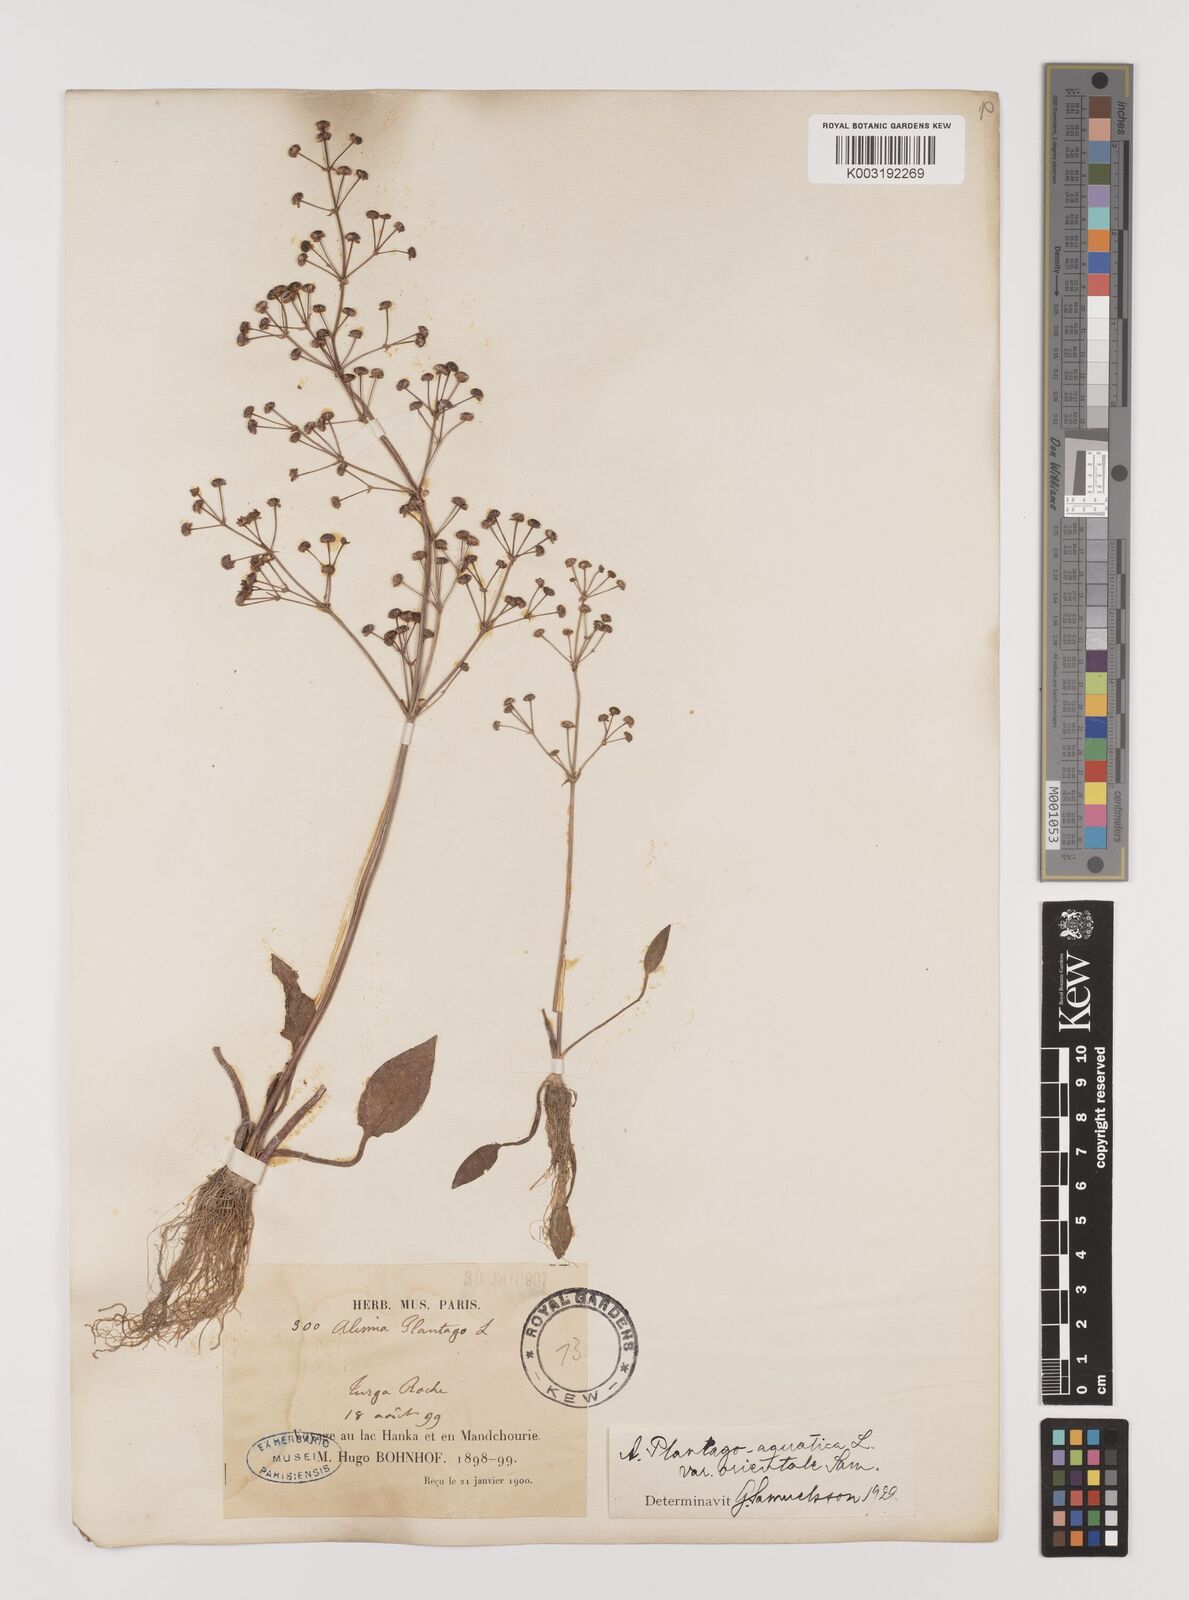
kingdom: Plantae
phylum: Tracheophyta
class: Liliopsida
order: Alismatales
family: Alismataceae
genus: Alisma
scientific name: Alisma plantago-aquatica
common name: Water-plantain
